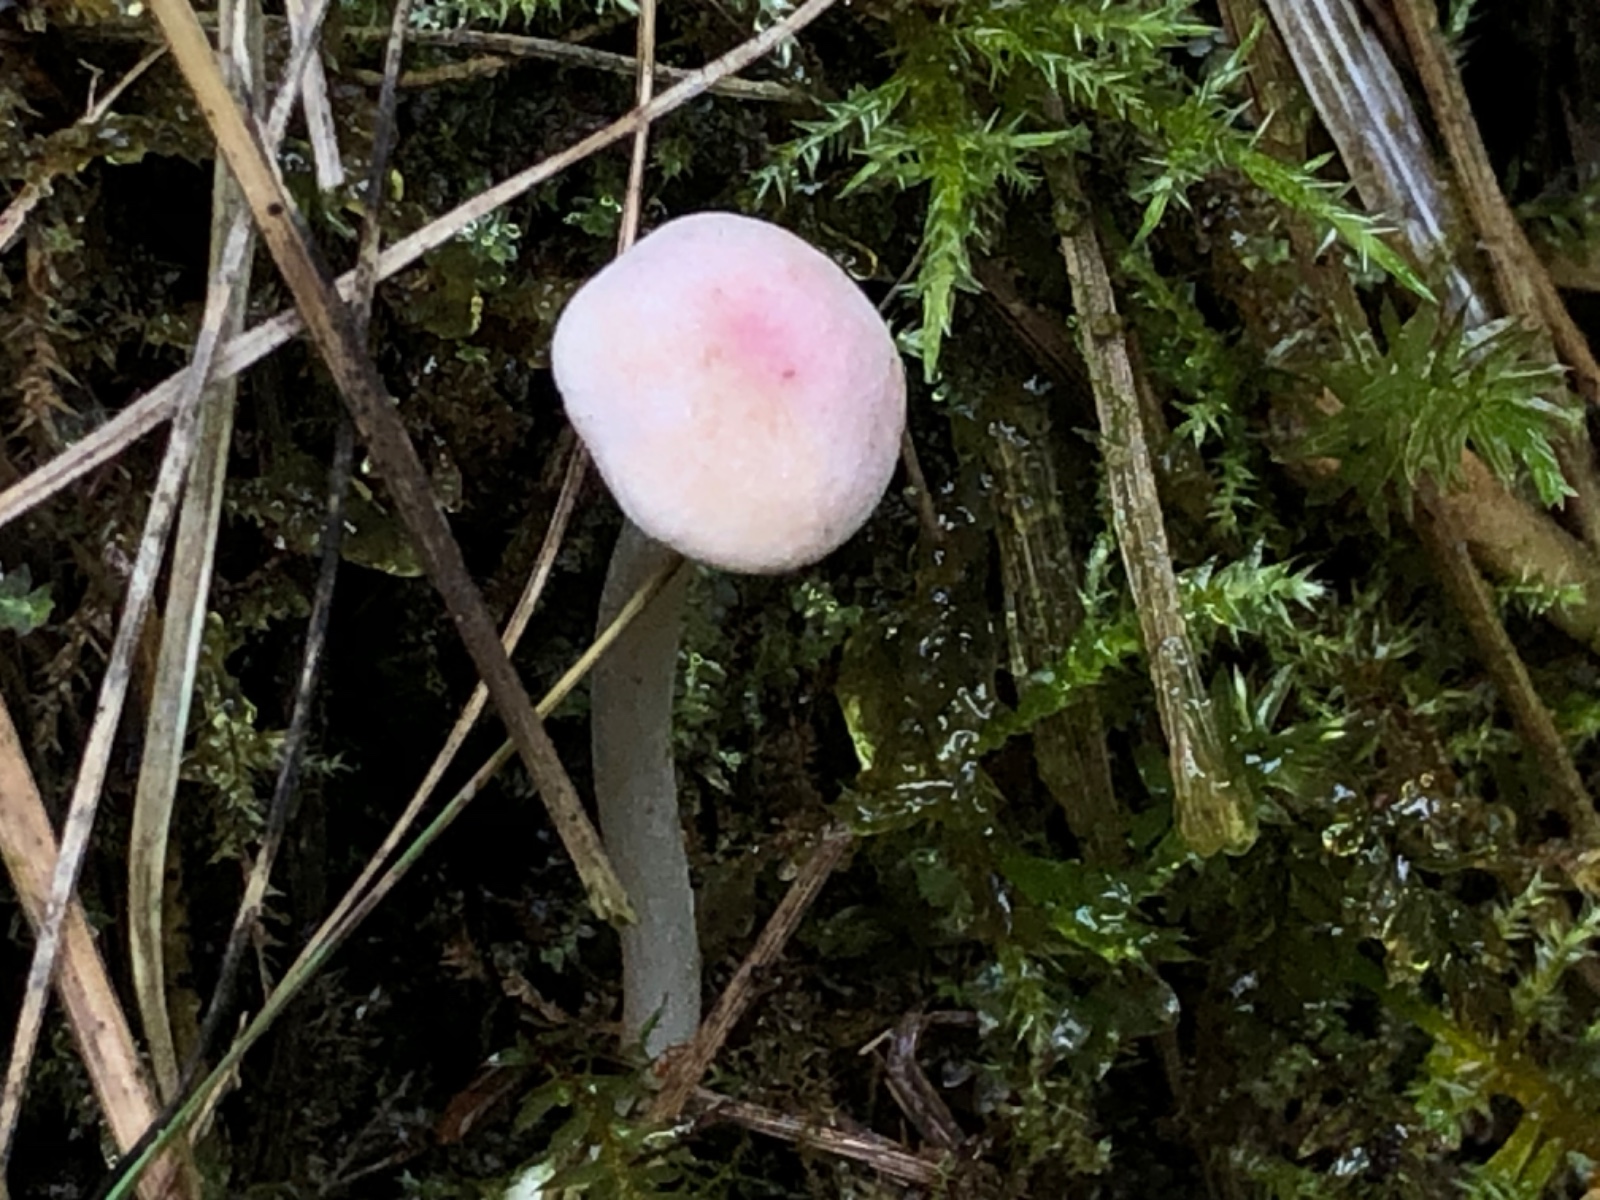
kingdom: Fungi
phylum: Basidiomycota
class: Agaricomycetes
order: Agaricales
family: Entolomataceae
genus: Entoloma
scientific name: Entoloma queletii
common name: rosalilla rødblad
